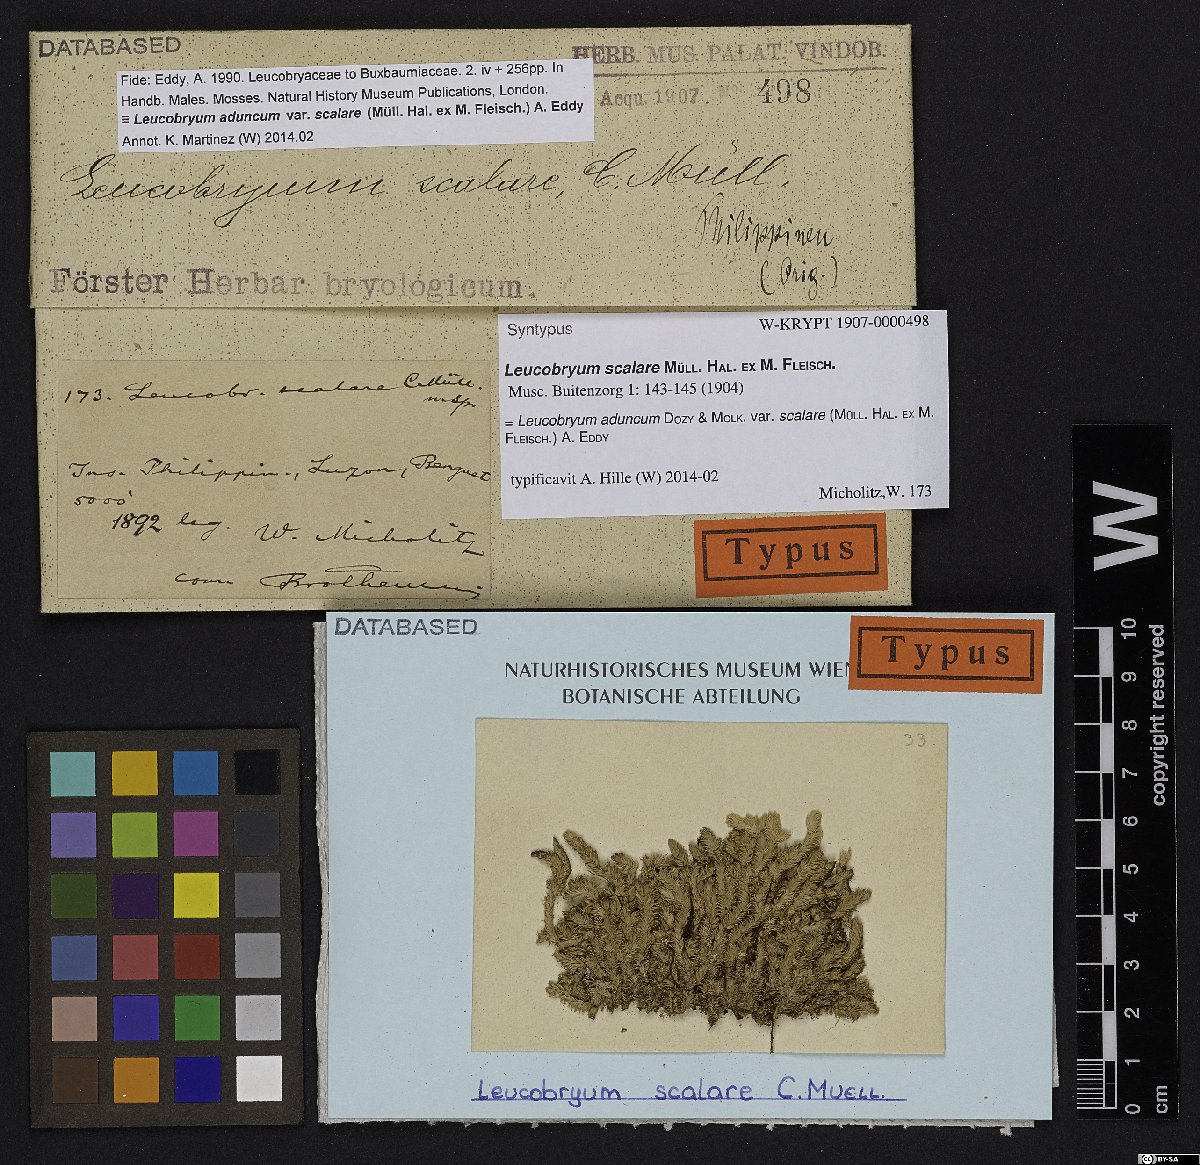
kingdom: Plantae
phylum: Bryophyta
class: Bryopsida
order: Dicranales
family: Leucobryaceae
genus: Leucobryum
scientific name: Leucobryum aduncum
